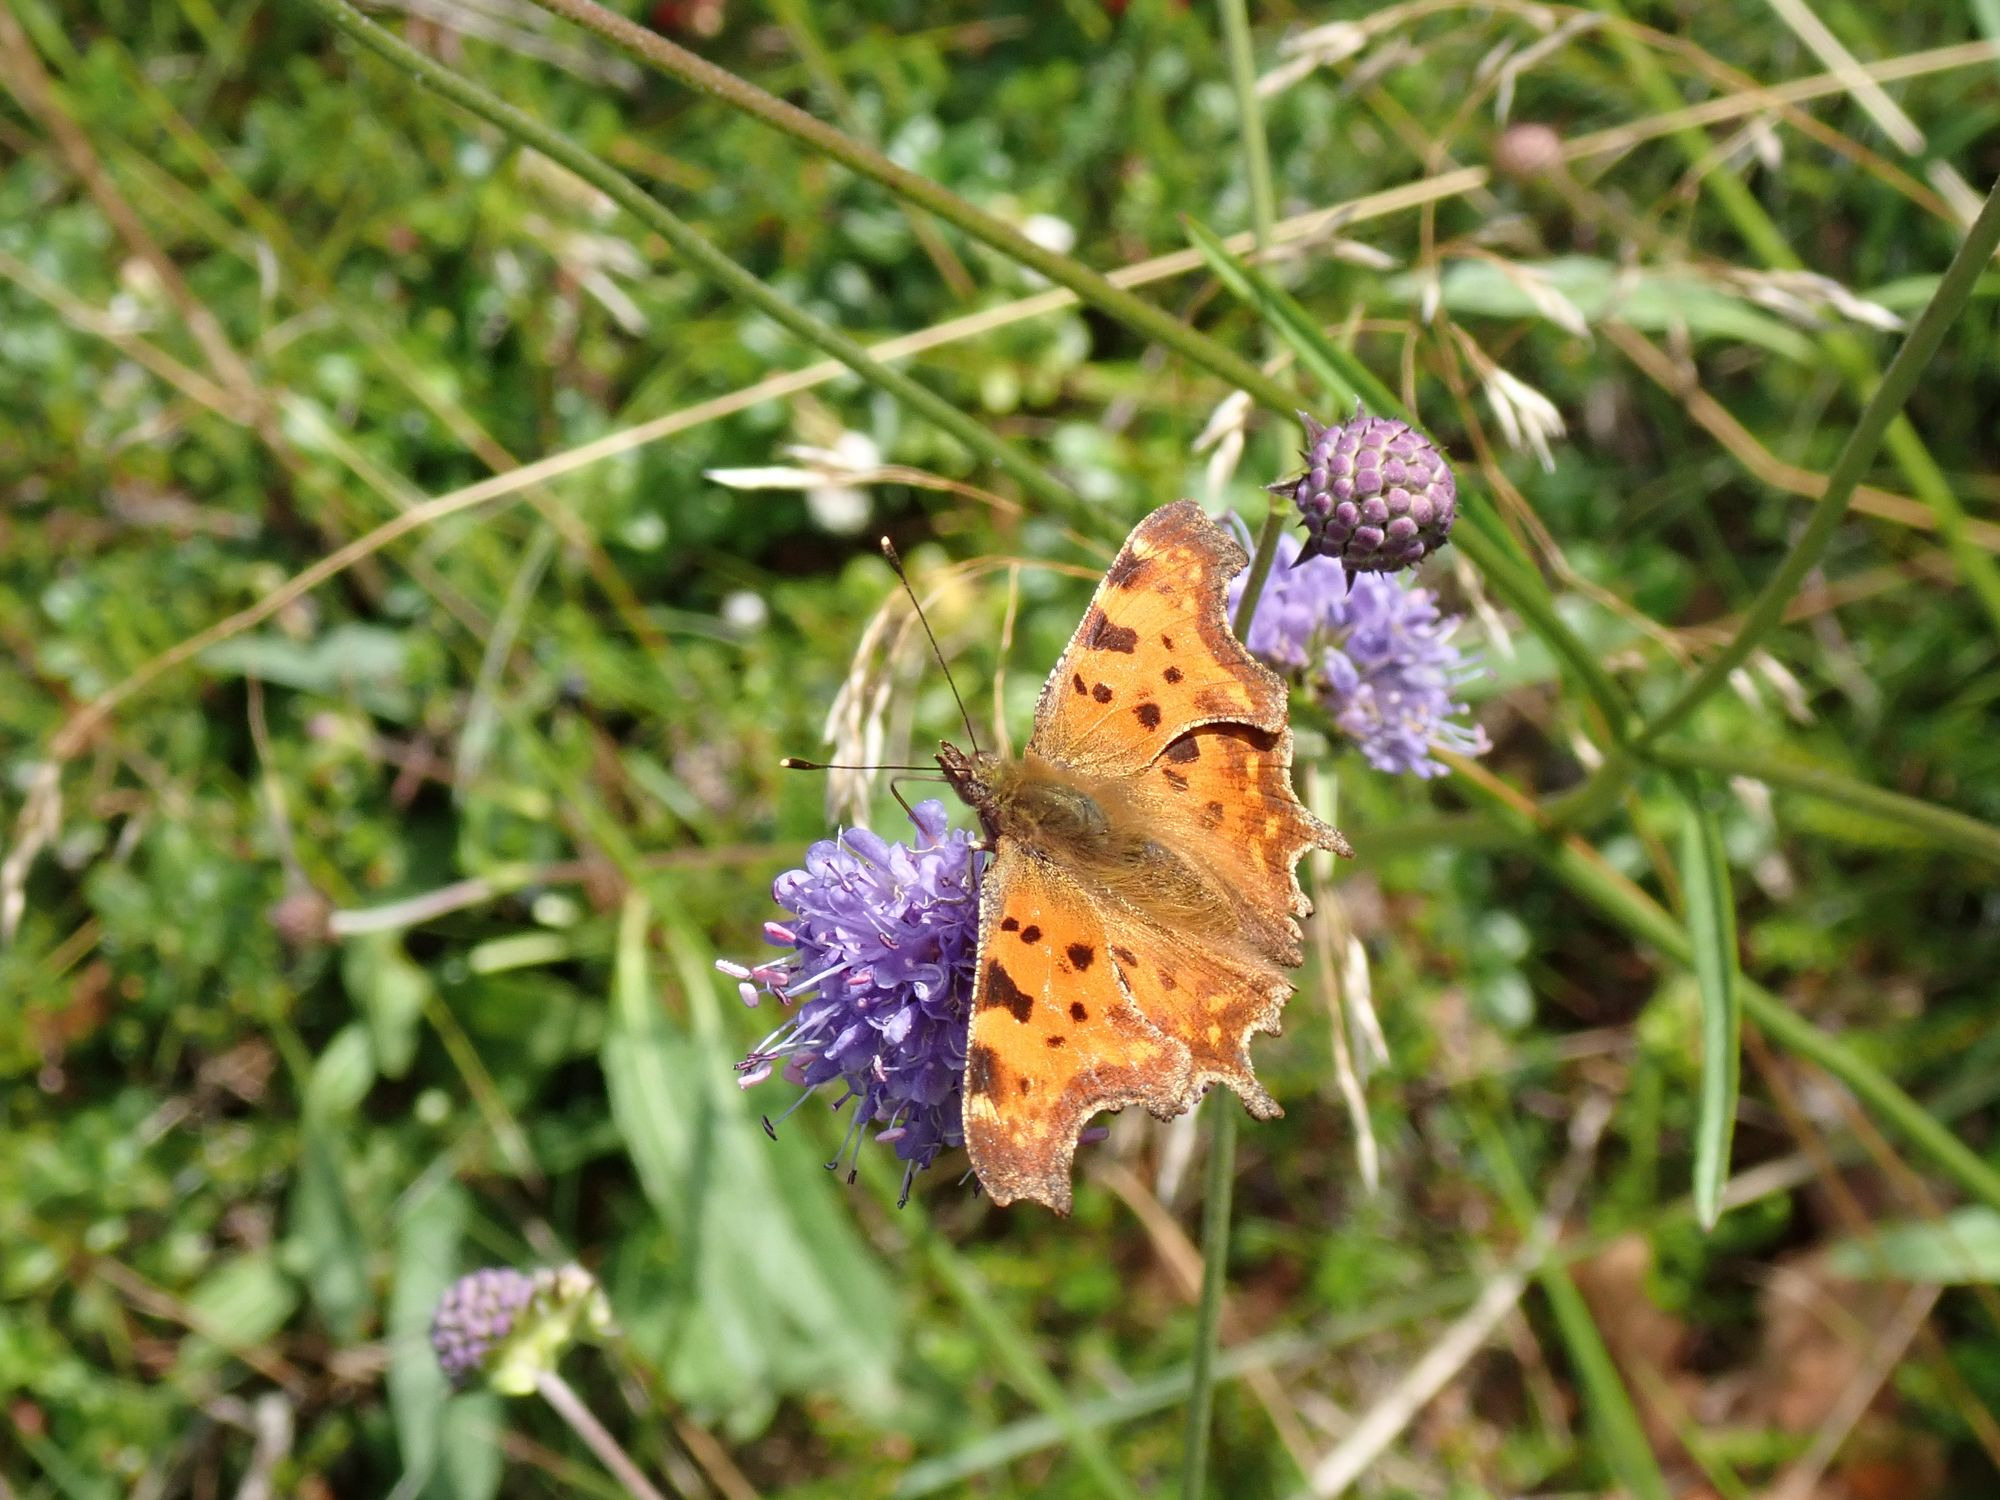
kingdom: Animalia
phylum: Arthropoda
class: Insecta
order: Lepidoptera
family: Nymphalidae
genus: Polygonia
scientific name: Polygonia c-album
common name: Det hvide C
